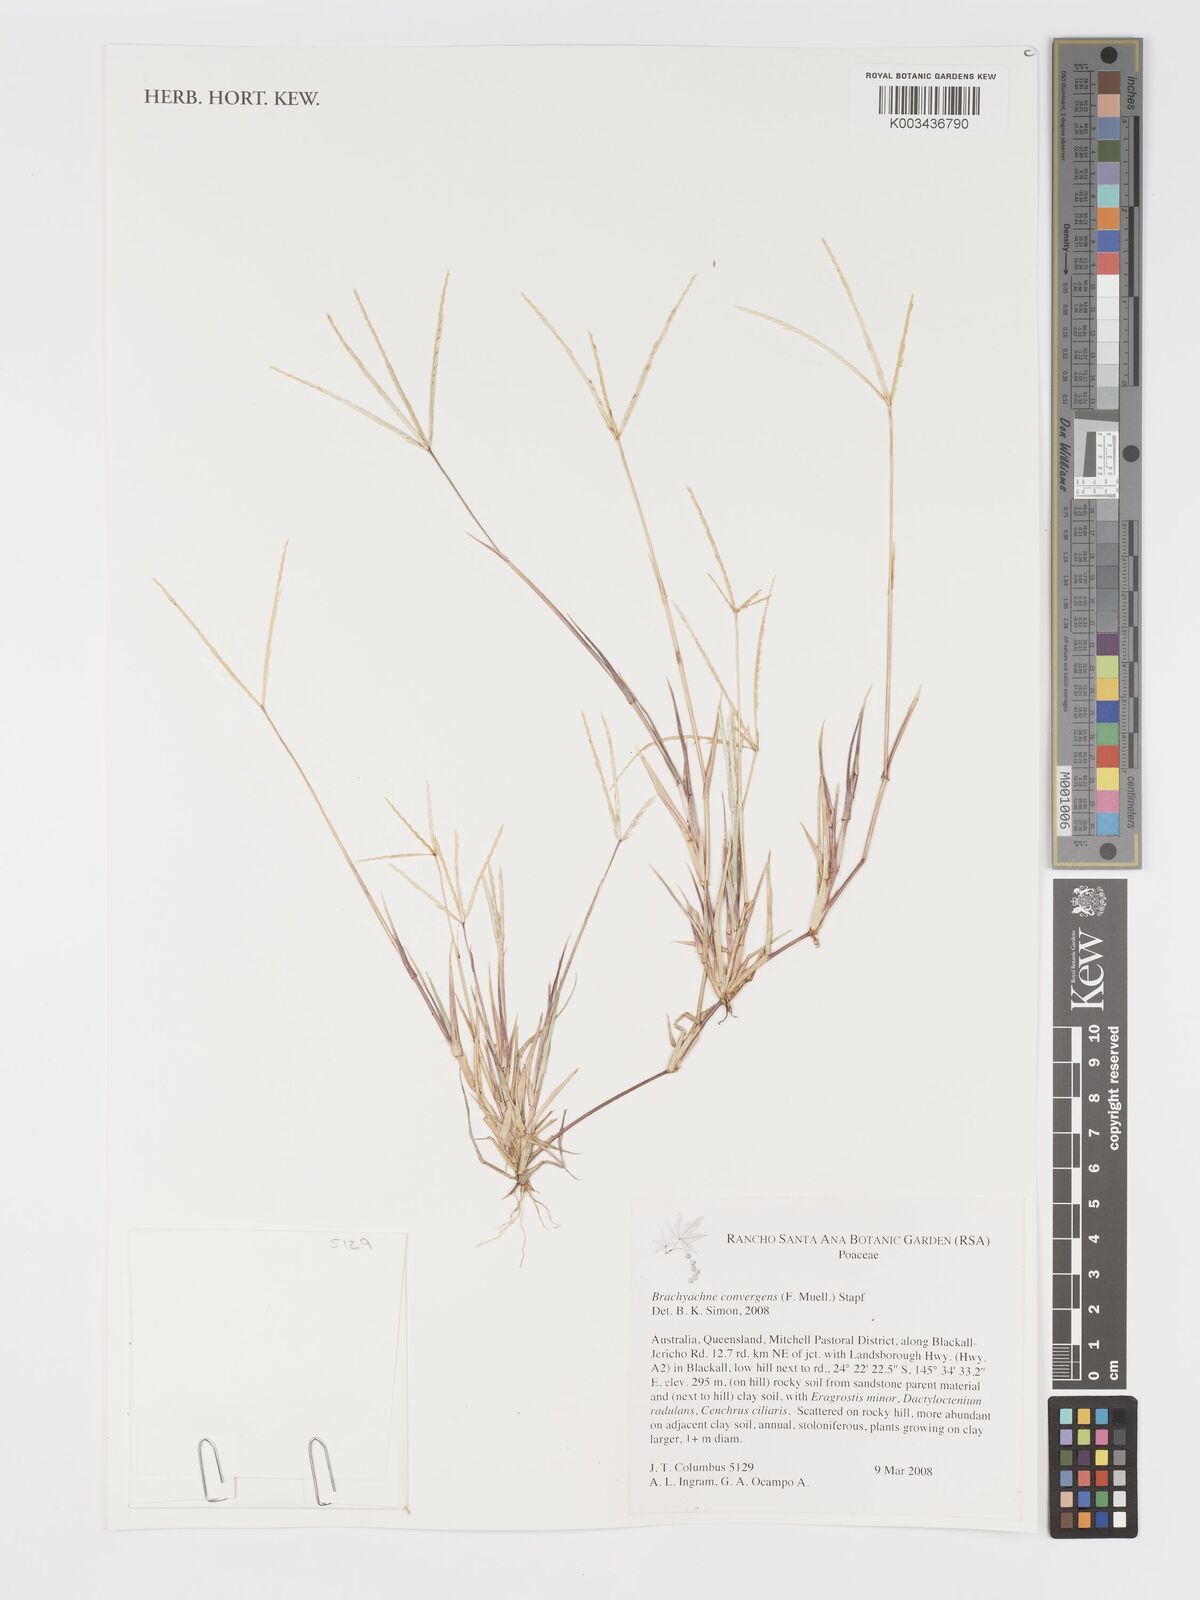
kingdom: Plantae
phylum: Tracheophyta
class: Liliopsida
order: Poales
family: Poaceae
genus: Cynodon
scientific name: Cynodon convergens
